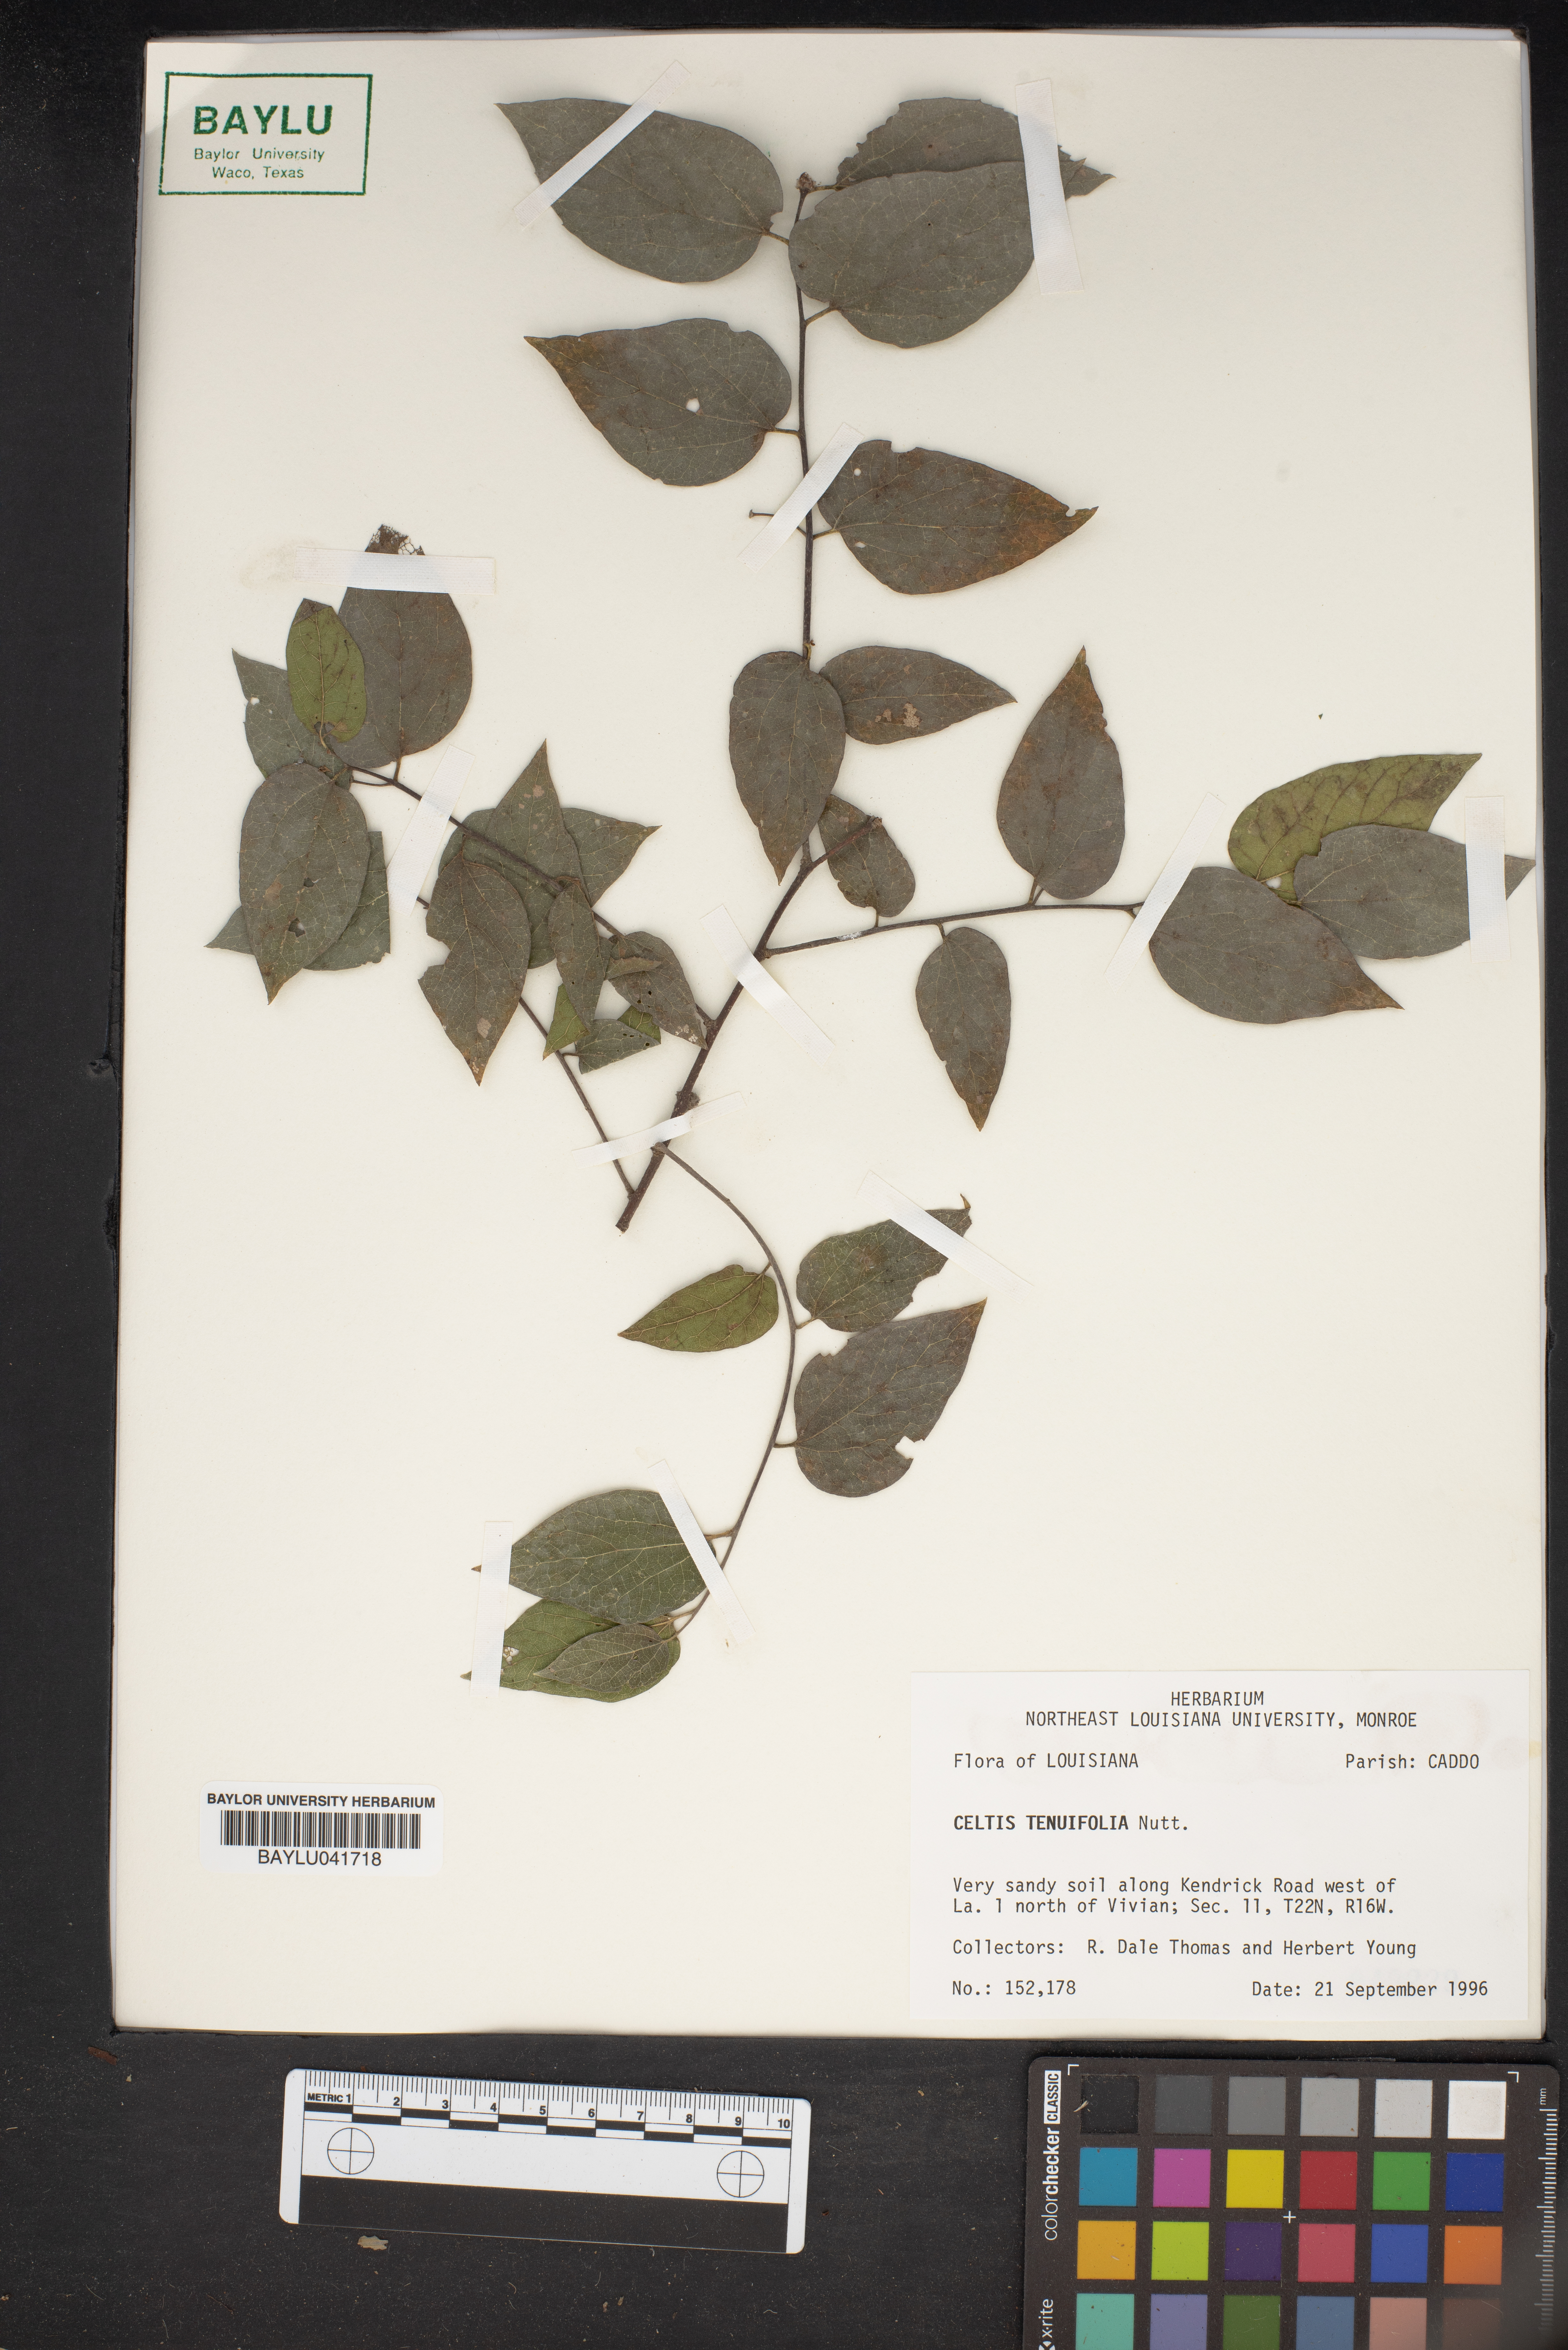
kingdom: Plantae
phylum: Tracheophyta
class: Magnoliopsida
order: Rosales
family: Cannabaceae
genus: Celtis
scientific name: Celtis tenuifolia
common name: Georgia hackberry
